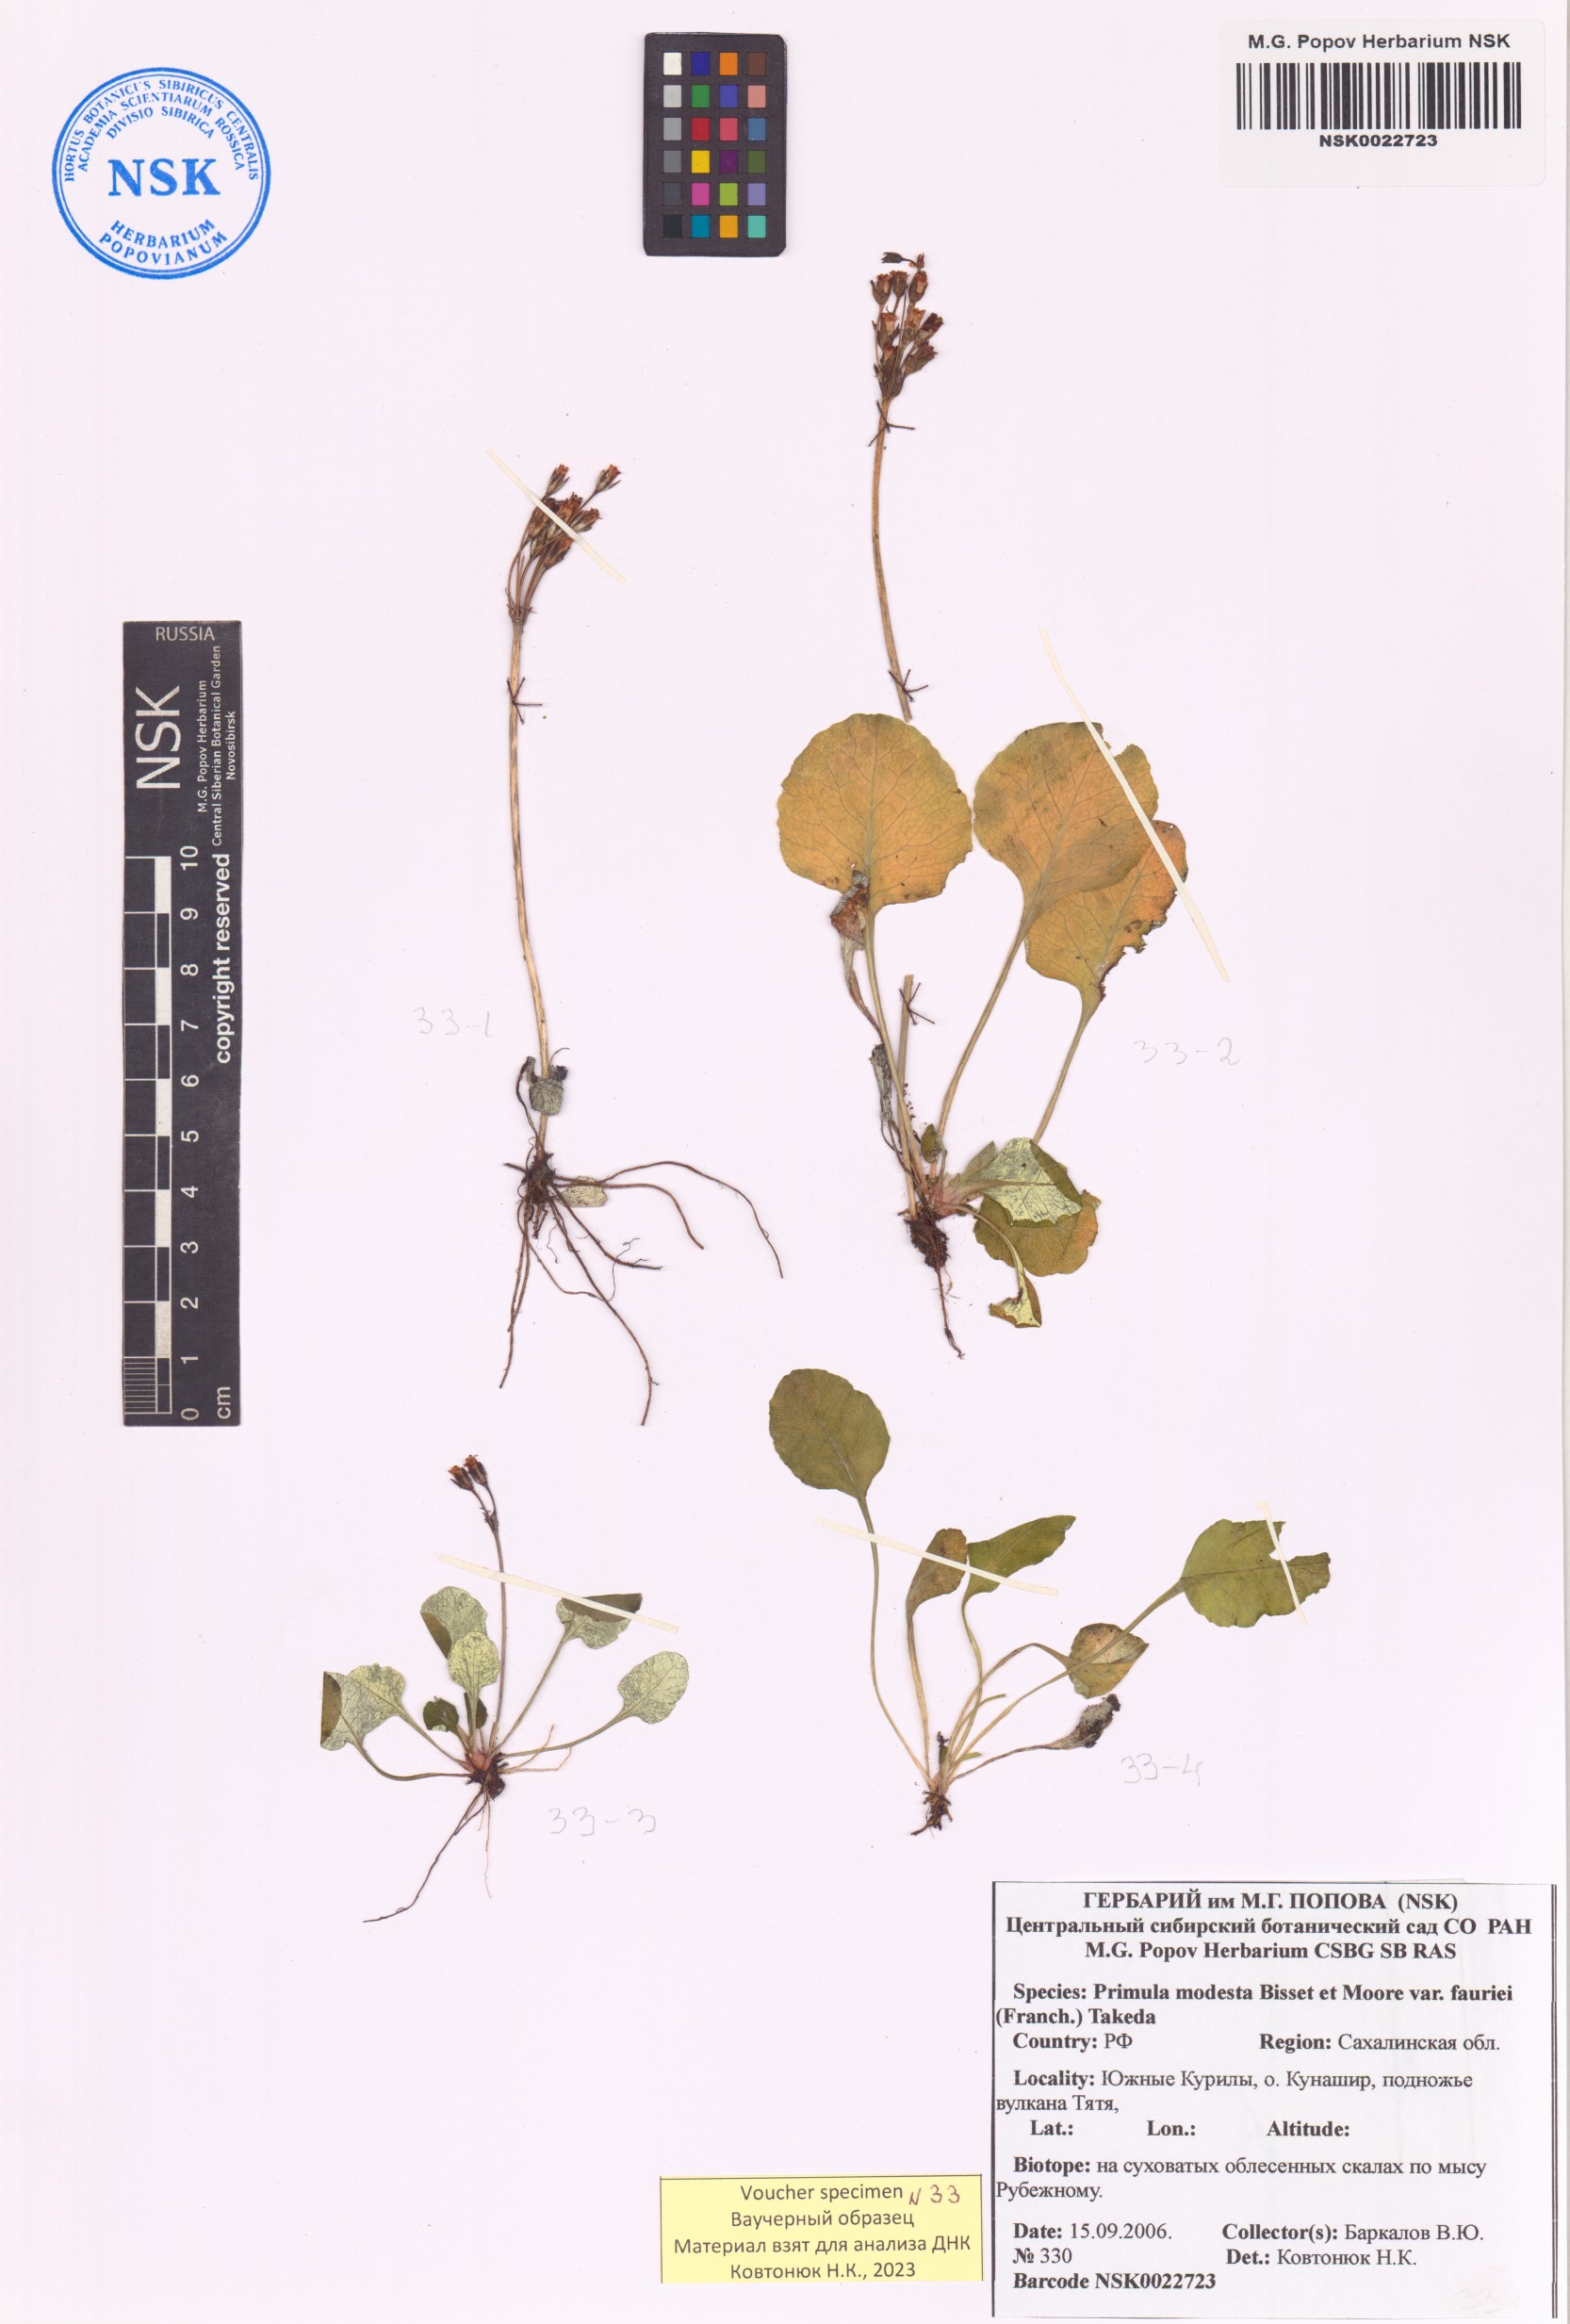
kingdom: Plantae
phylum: Tracheophyta
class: Magnoliopsida
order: Ericales
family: Primulaceae
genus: Primula
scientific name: Primula modesta
